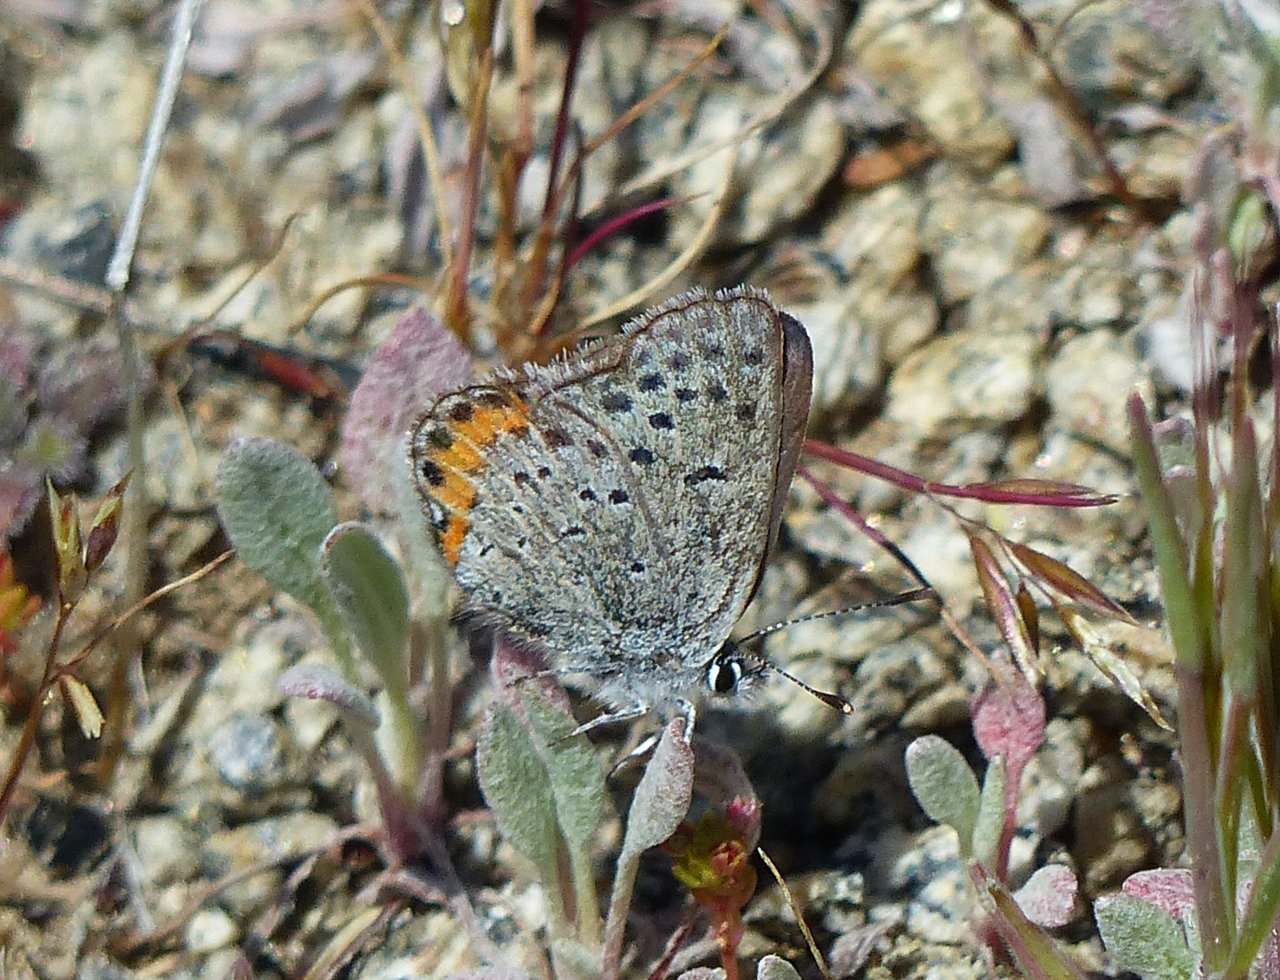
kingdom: Animalia
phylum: Arthropoda
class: Insecta
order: Lepidoptera
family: Lycaenidae
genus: Plebejus
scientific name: Plebejus acmon
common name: Acmon Blue
